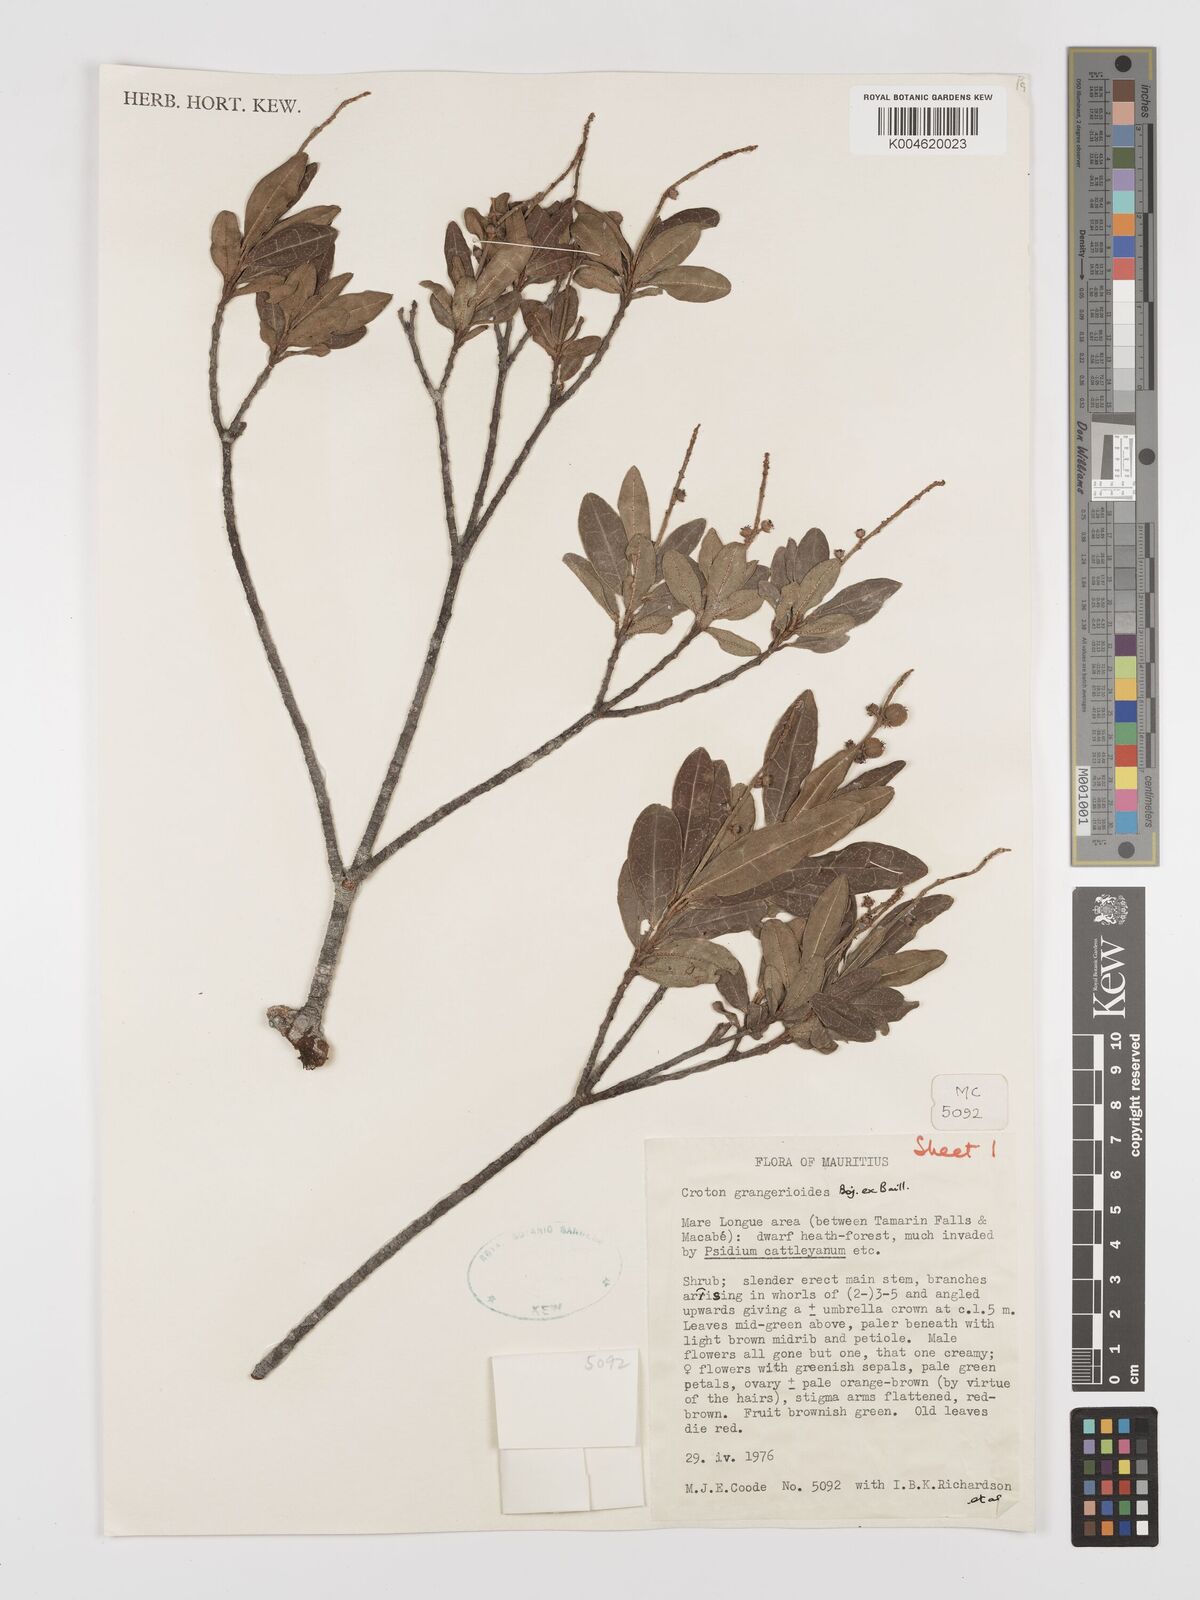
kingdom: Plantae
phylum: Tracheophyta
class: Magnoliopsida
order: Malpighiales
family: Euphorbiaceae
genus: Croton
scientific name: Croton grangerioides
